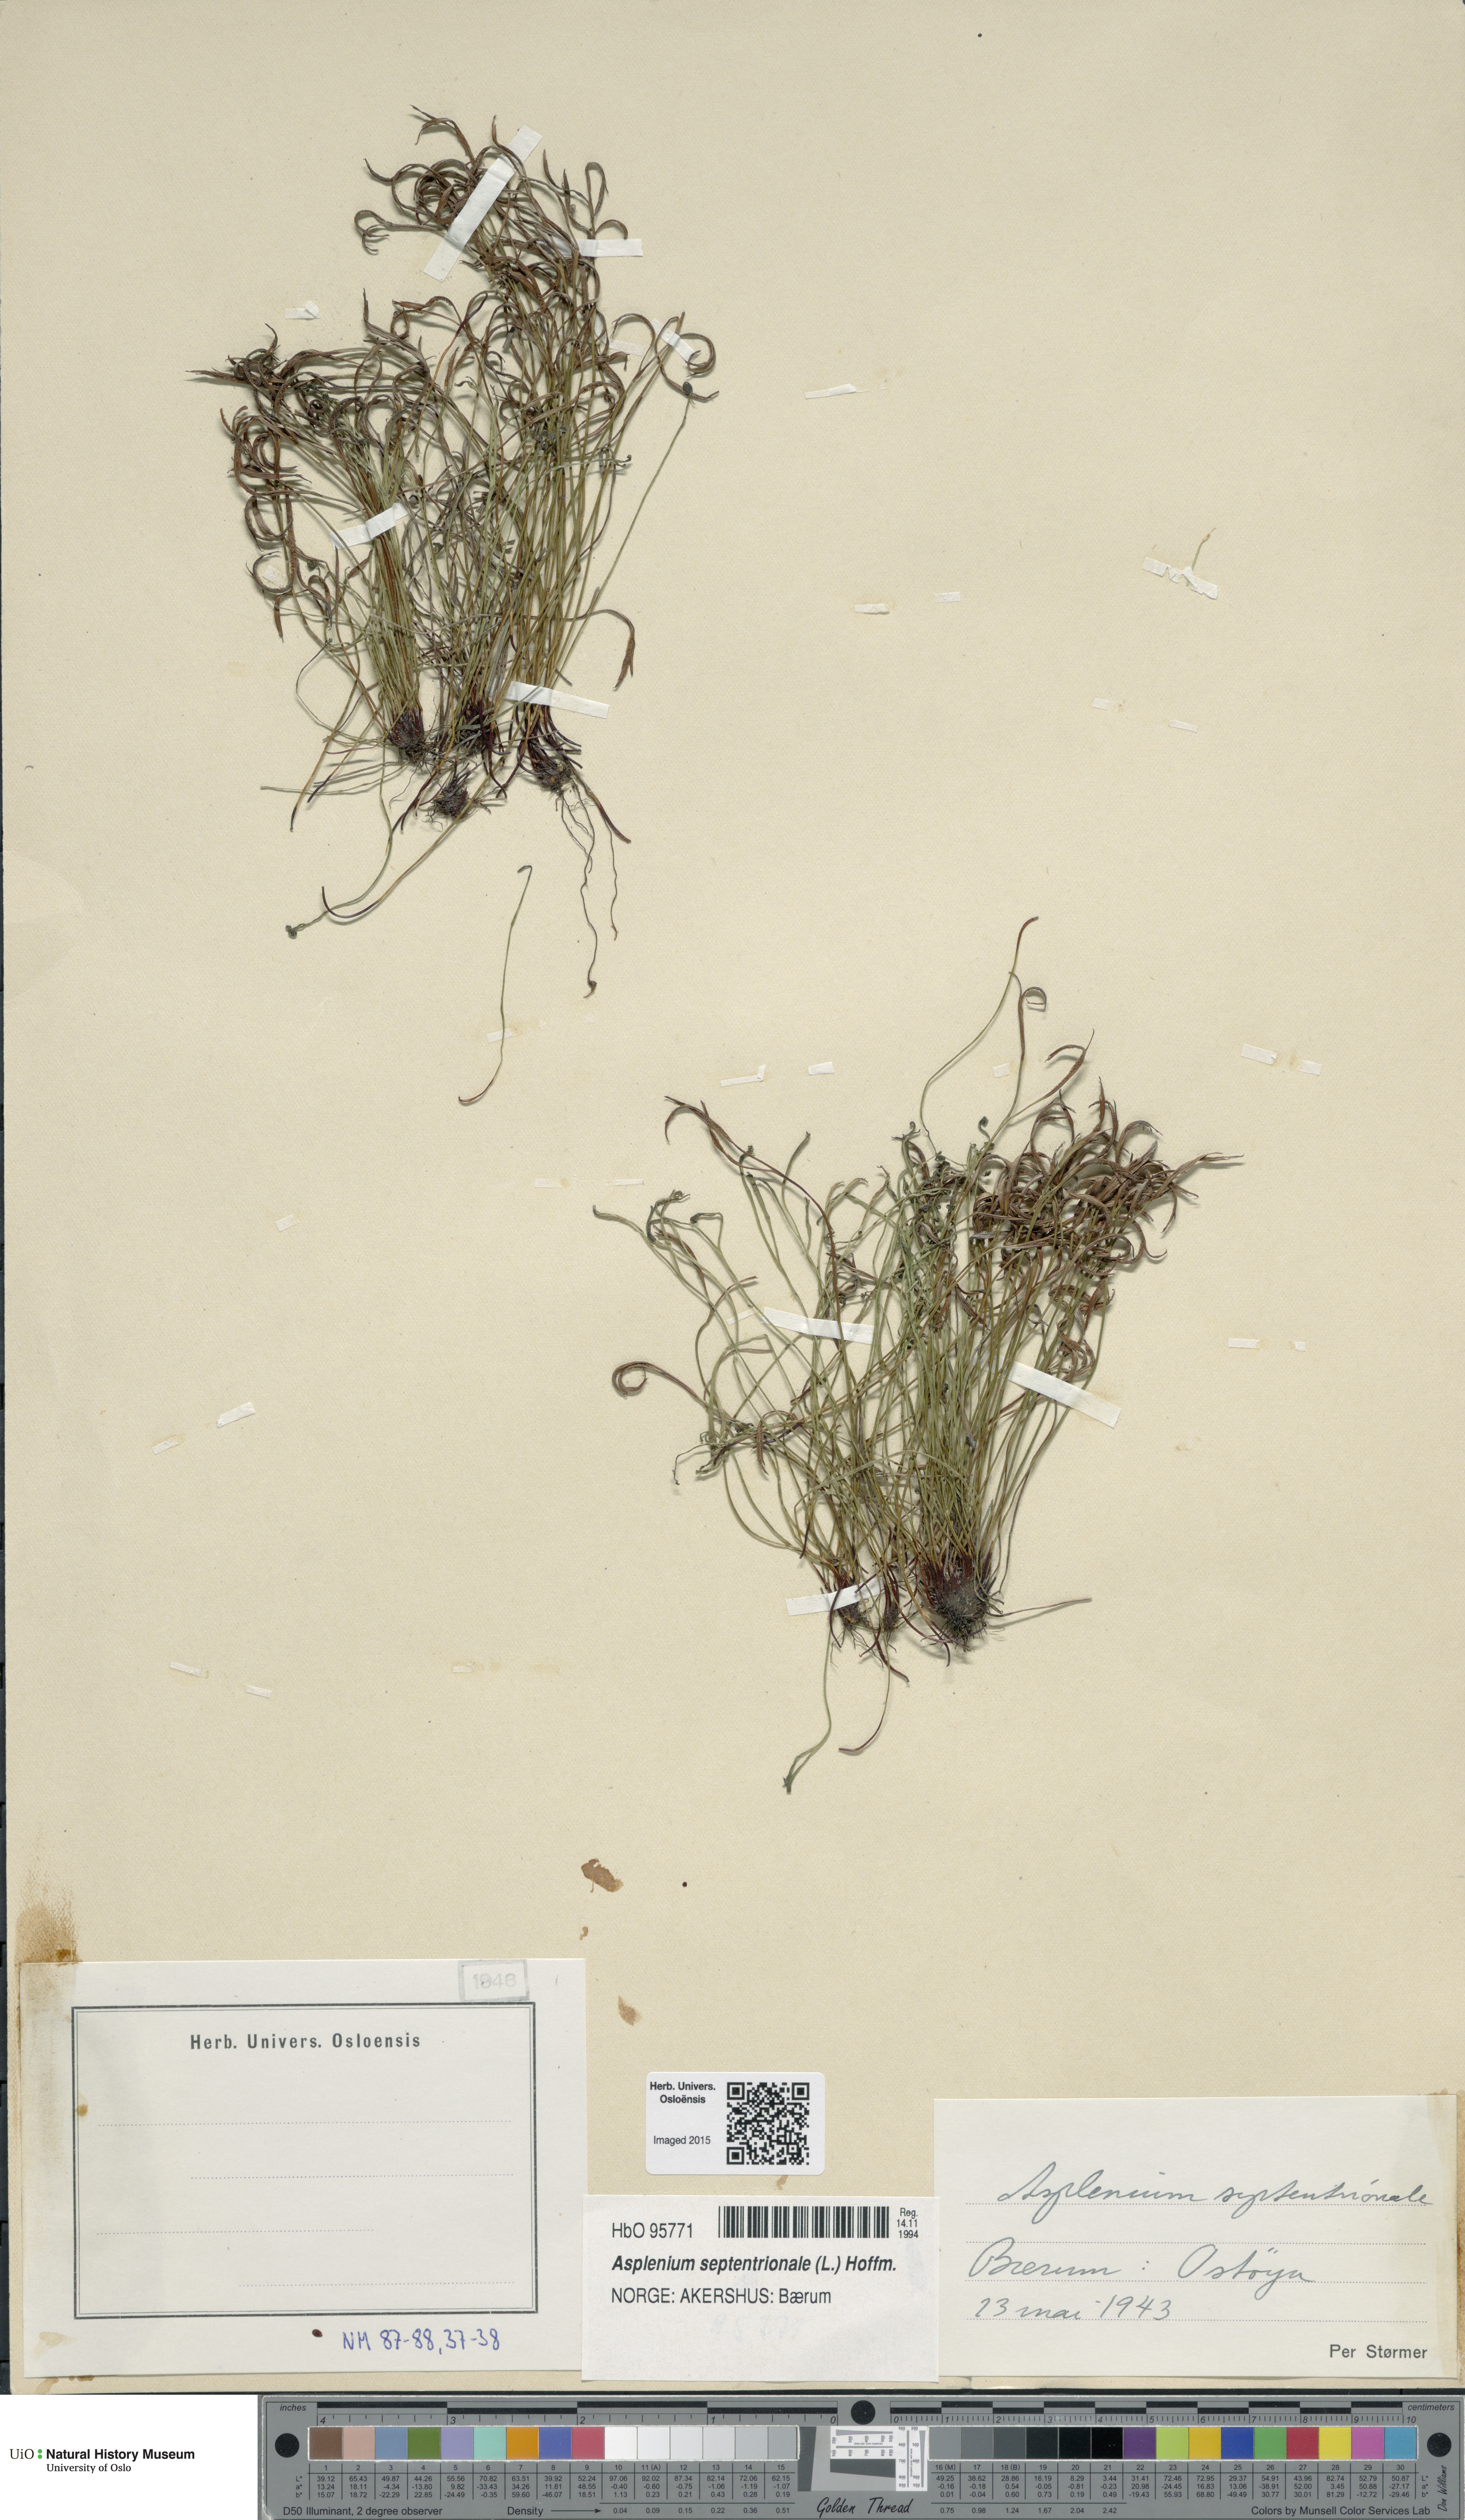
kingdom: Plantae
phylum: Tracheophyta
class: Polypodiopsida
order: Polypodiales
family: Aspleniaceae
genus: Asplenium
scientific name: Asplenium septentrionale
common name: Forked spleenwort
